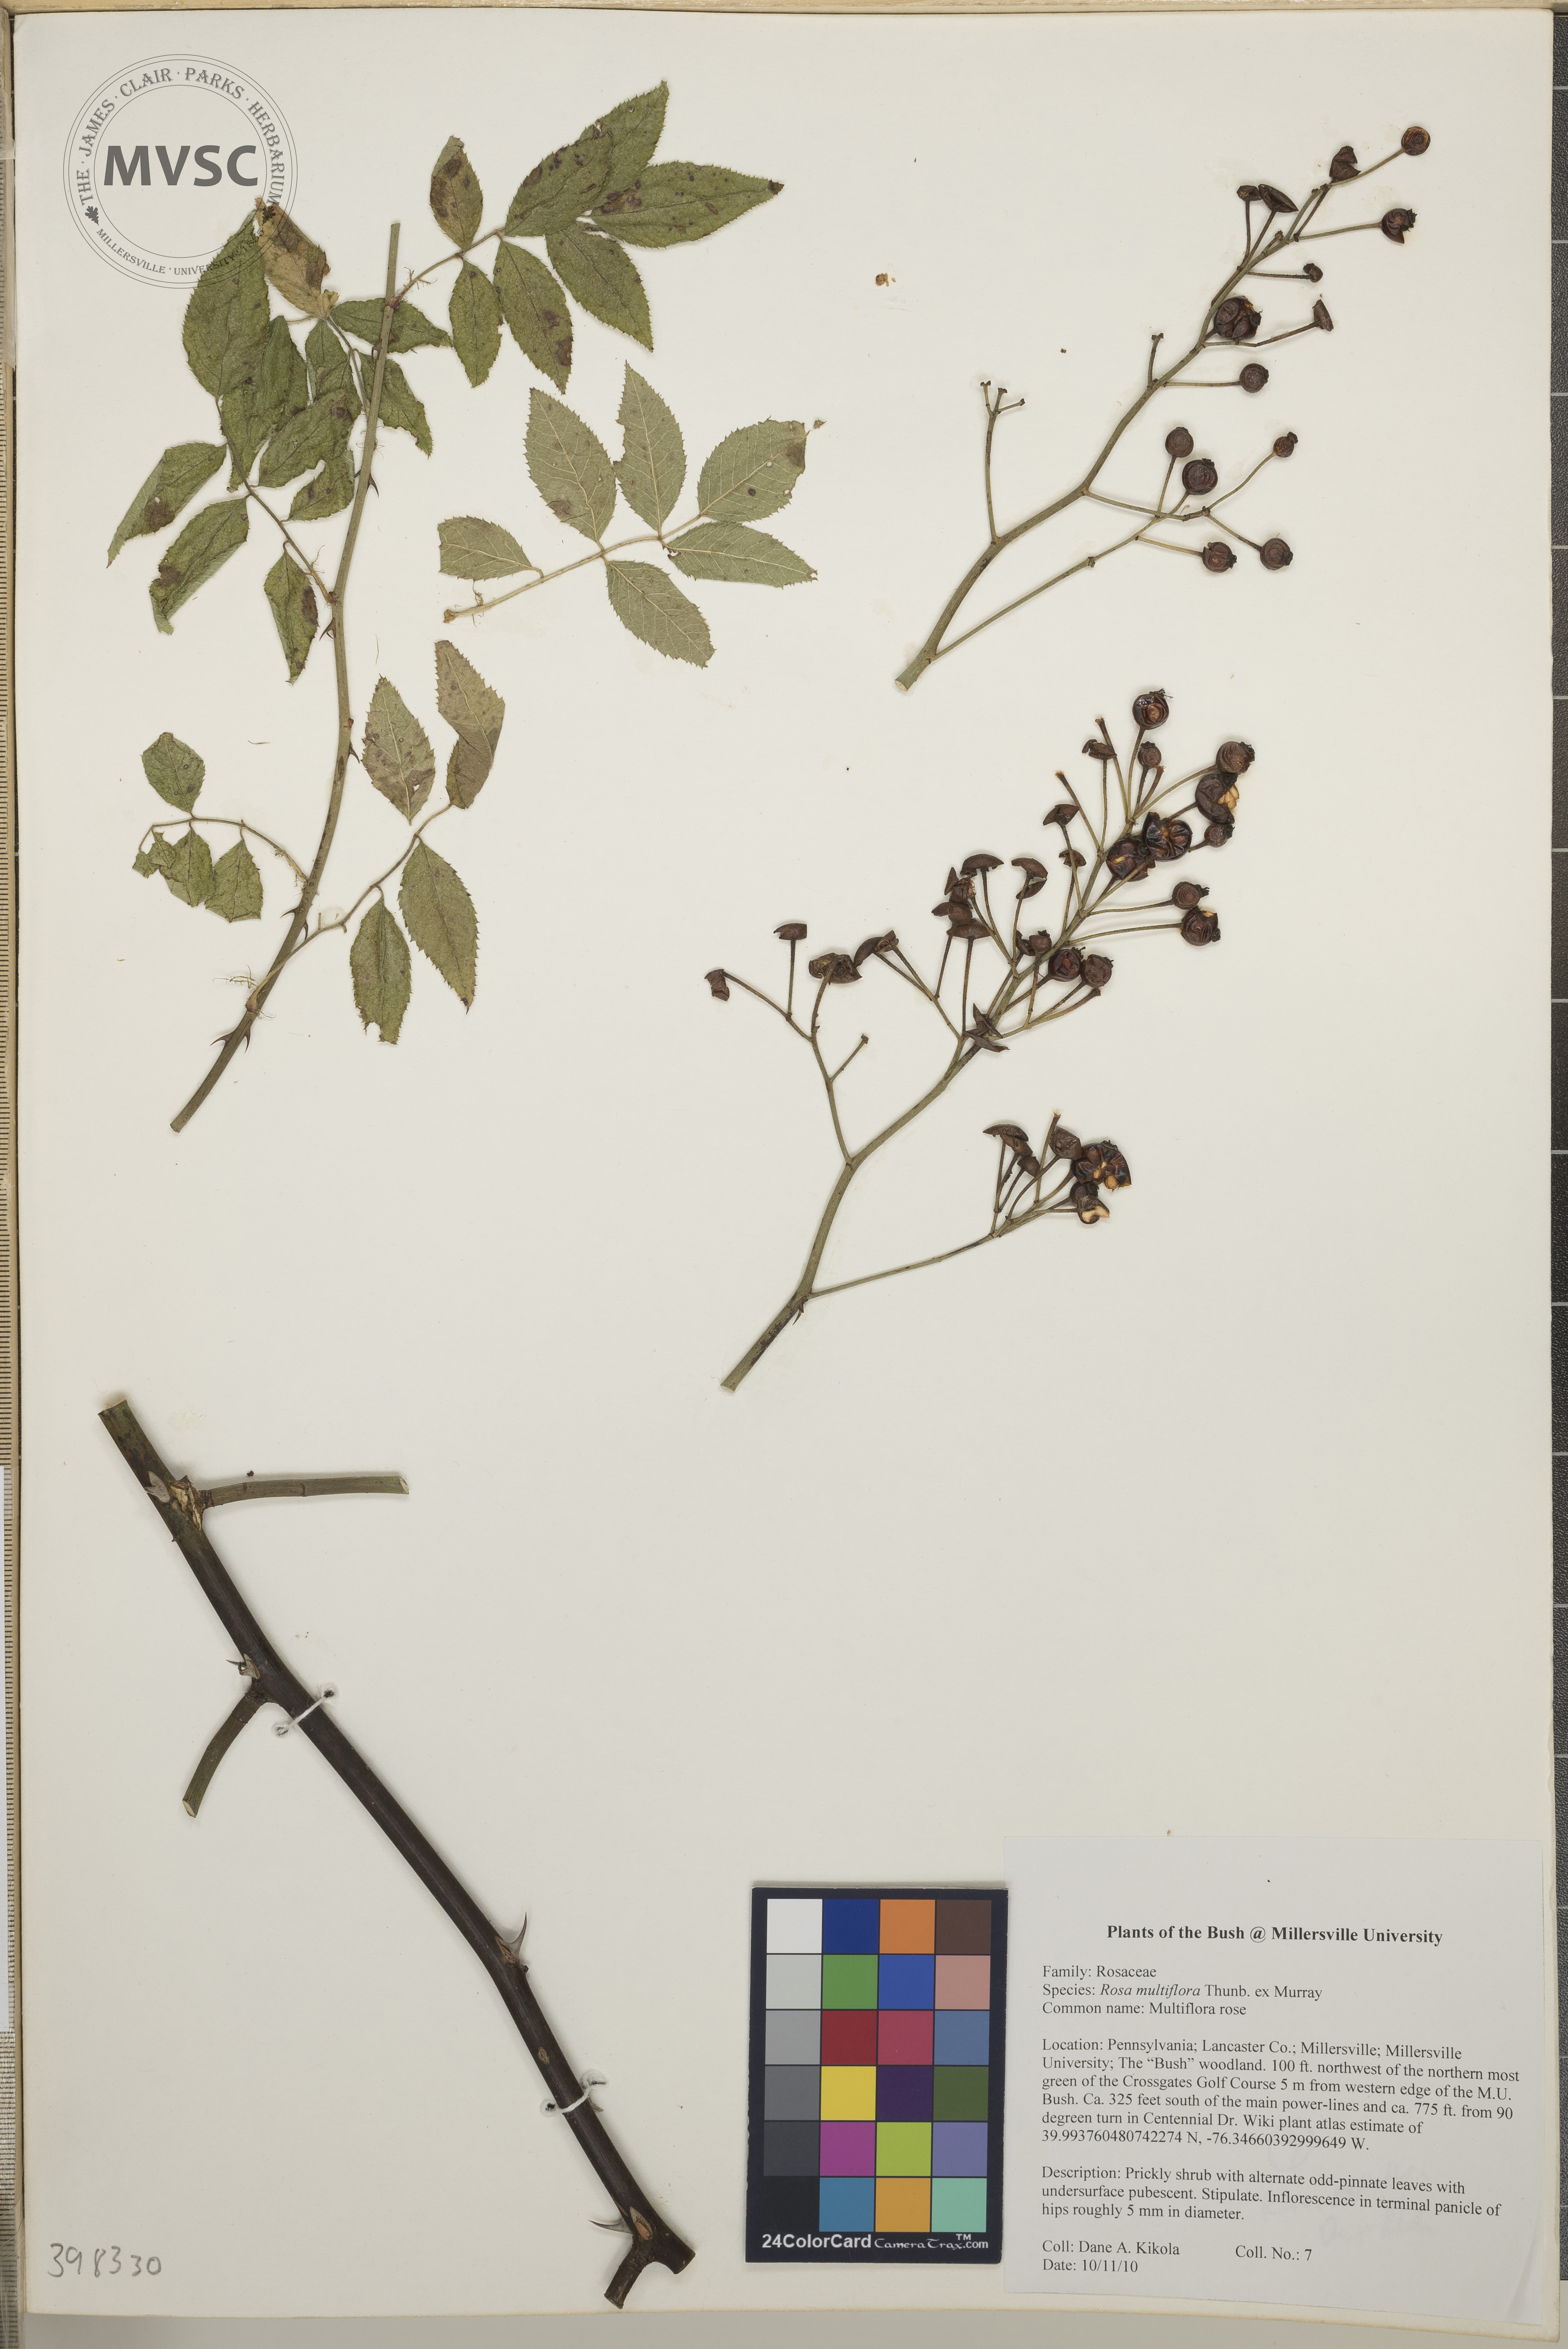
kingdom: Plantae
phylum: Tracheophyta
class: Magnoliopsida
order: Rosales
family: Rosaceae
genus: Rosa
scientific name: Rosa multiflora
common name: Multiflora rose
